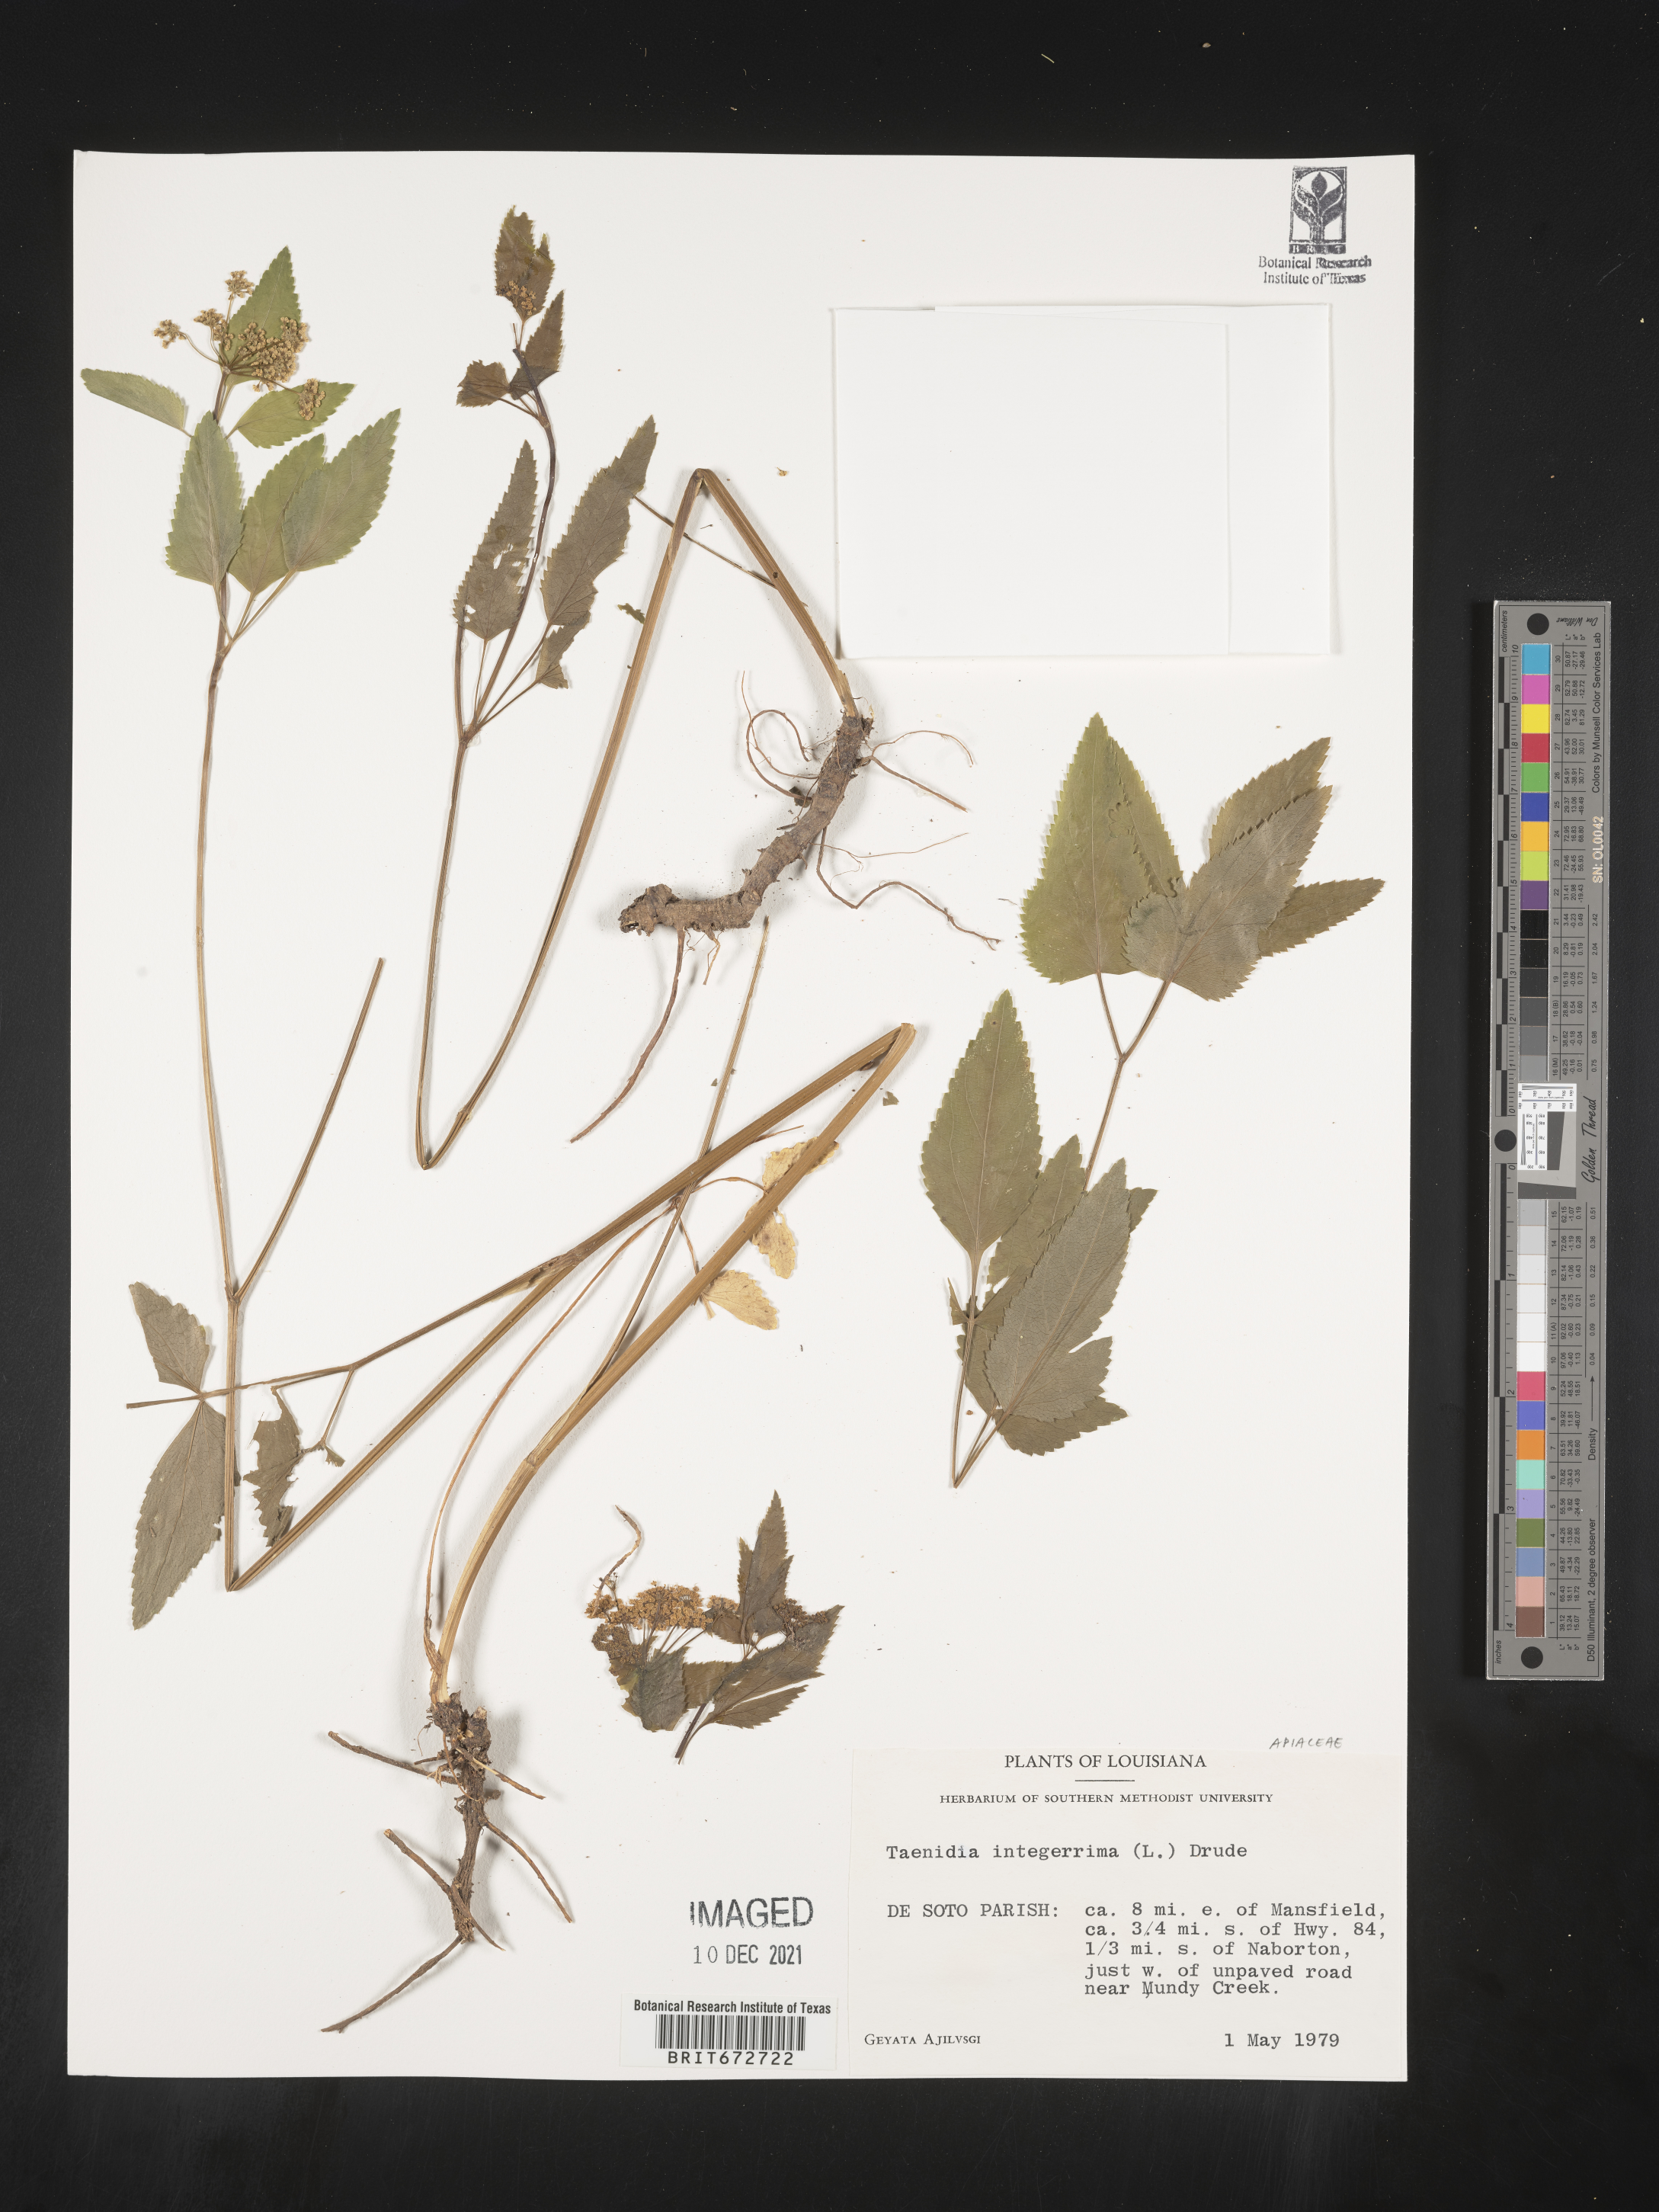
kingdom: Plantae
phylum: Tracheophyta
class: Magnoliopsida
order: Apiales
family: Apiaceae
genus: Taenidia
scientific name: Taenidia
